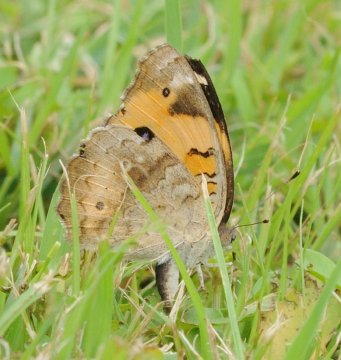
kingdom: Animalia
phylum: Arthropoda
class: Insecta
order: Lepidoptera
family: Nymphalidae
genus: Junonia
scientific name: Junonia hierta
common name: Yellow Pansy
